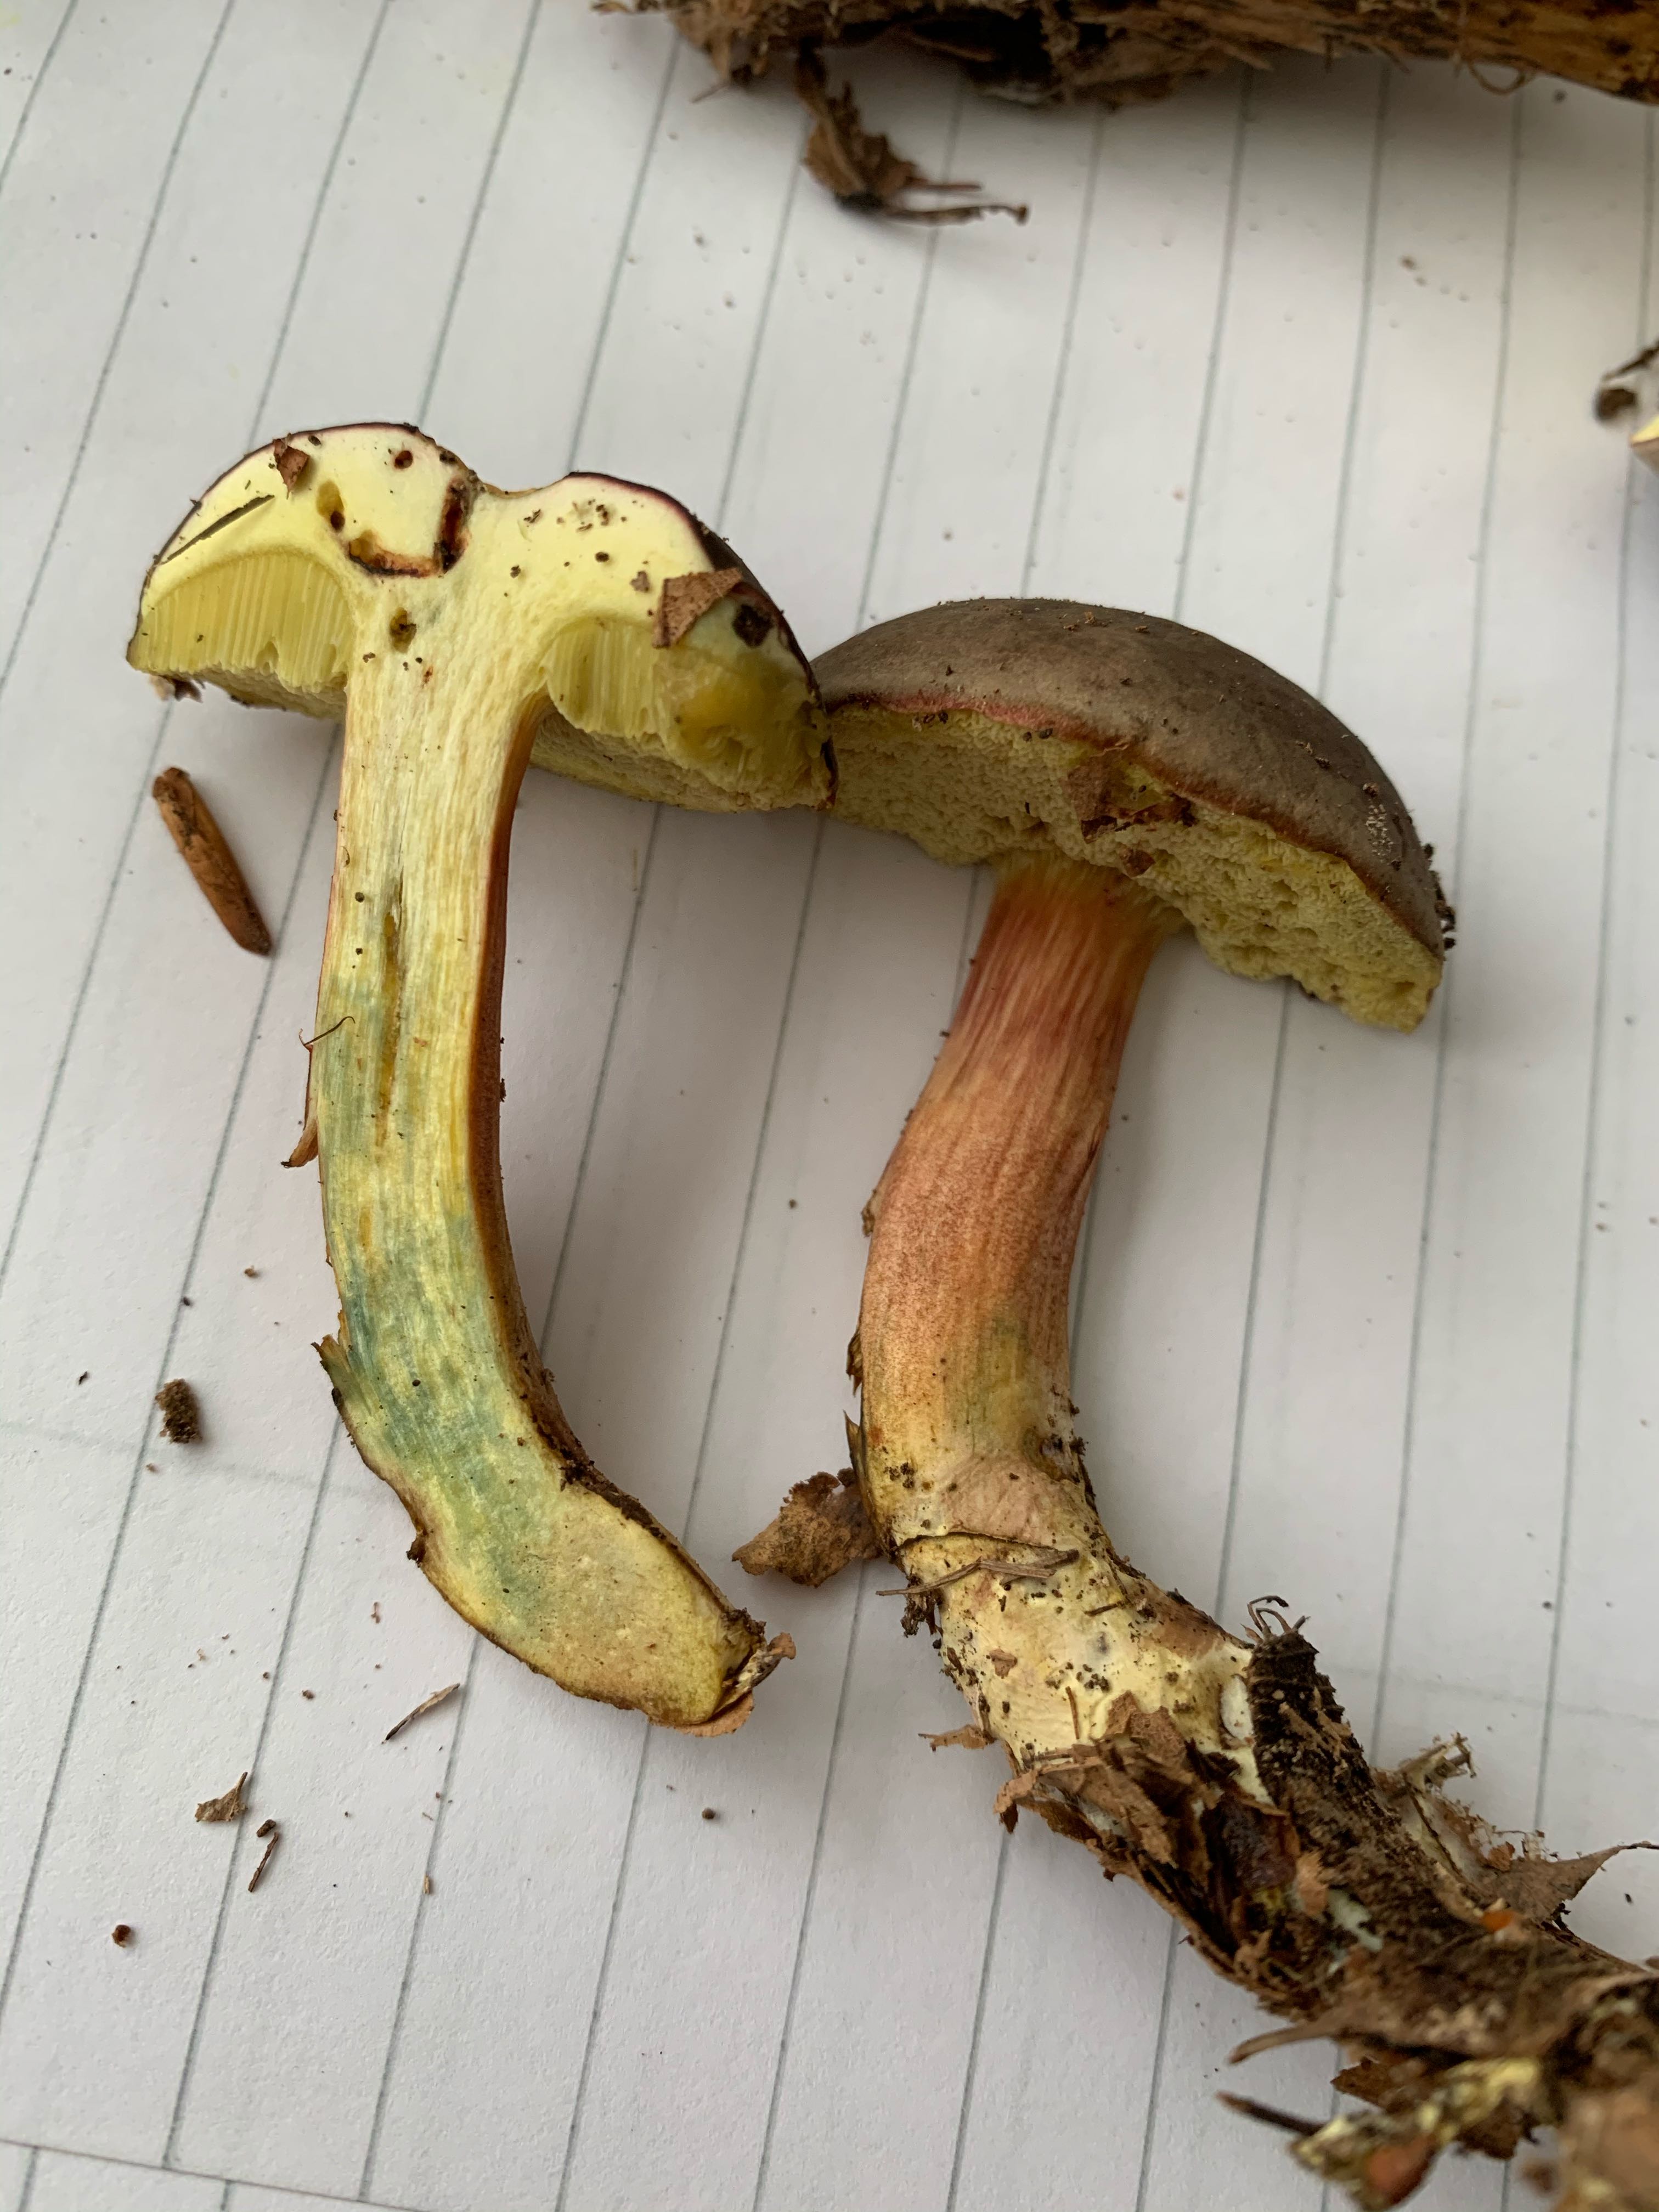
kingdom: Fungi
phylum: Basidiomycota
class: Agaricomycetes
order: Boletales
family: Boletaceae
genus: Xerocomellus
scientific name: Xerocomellus pruinatus
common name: dugget rørhat
